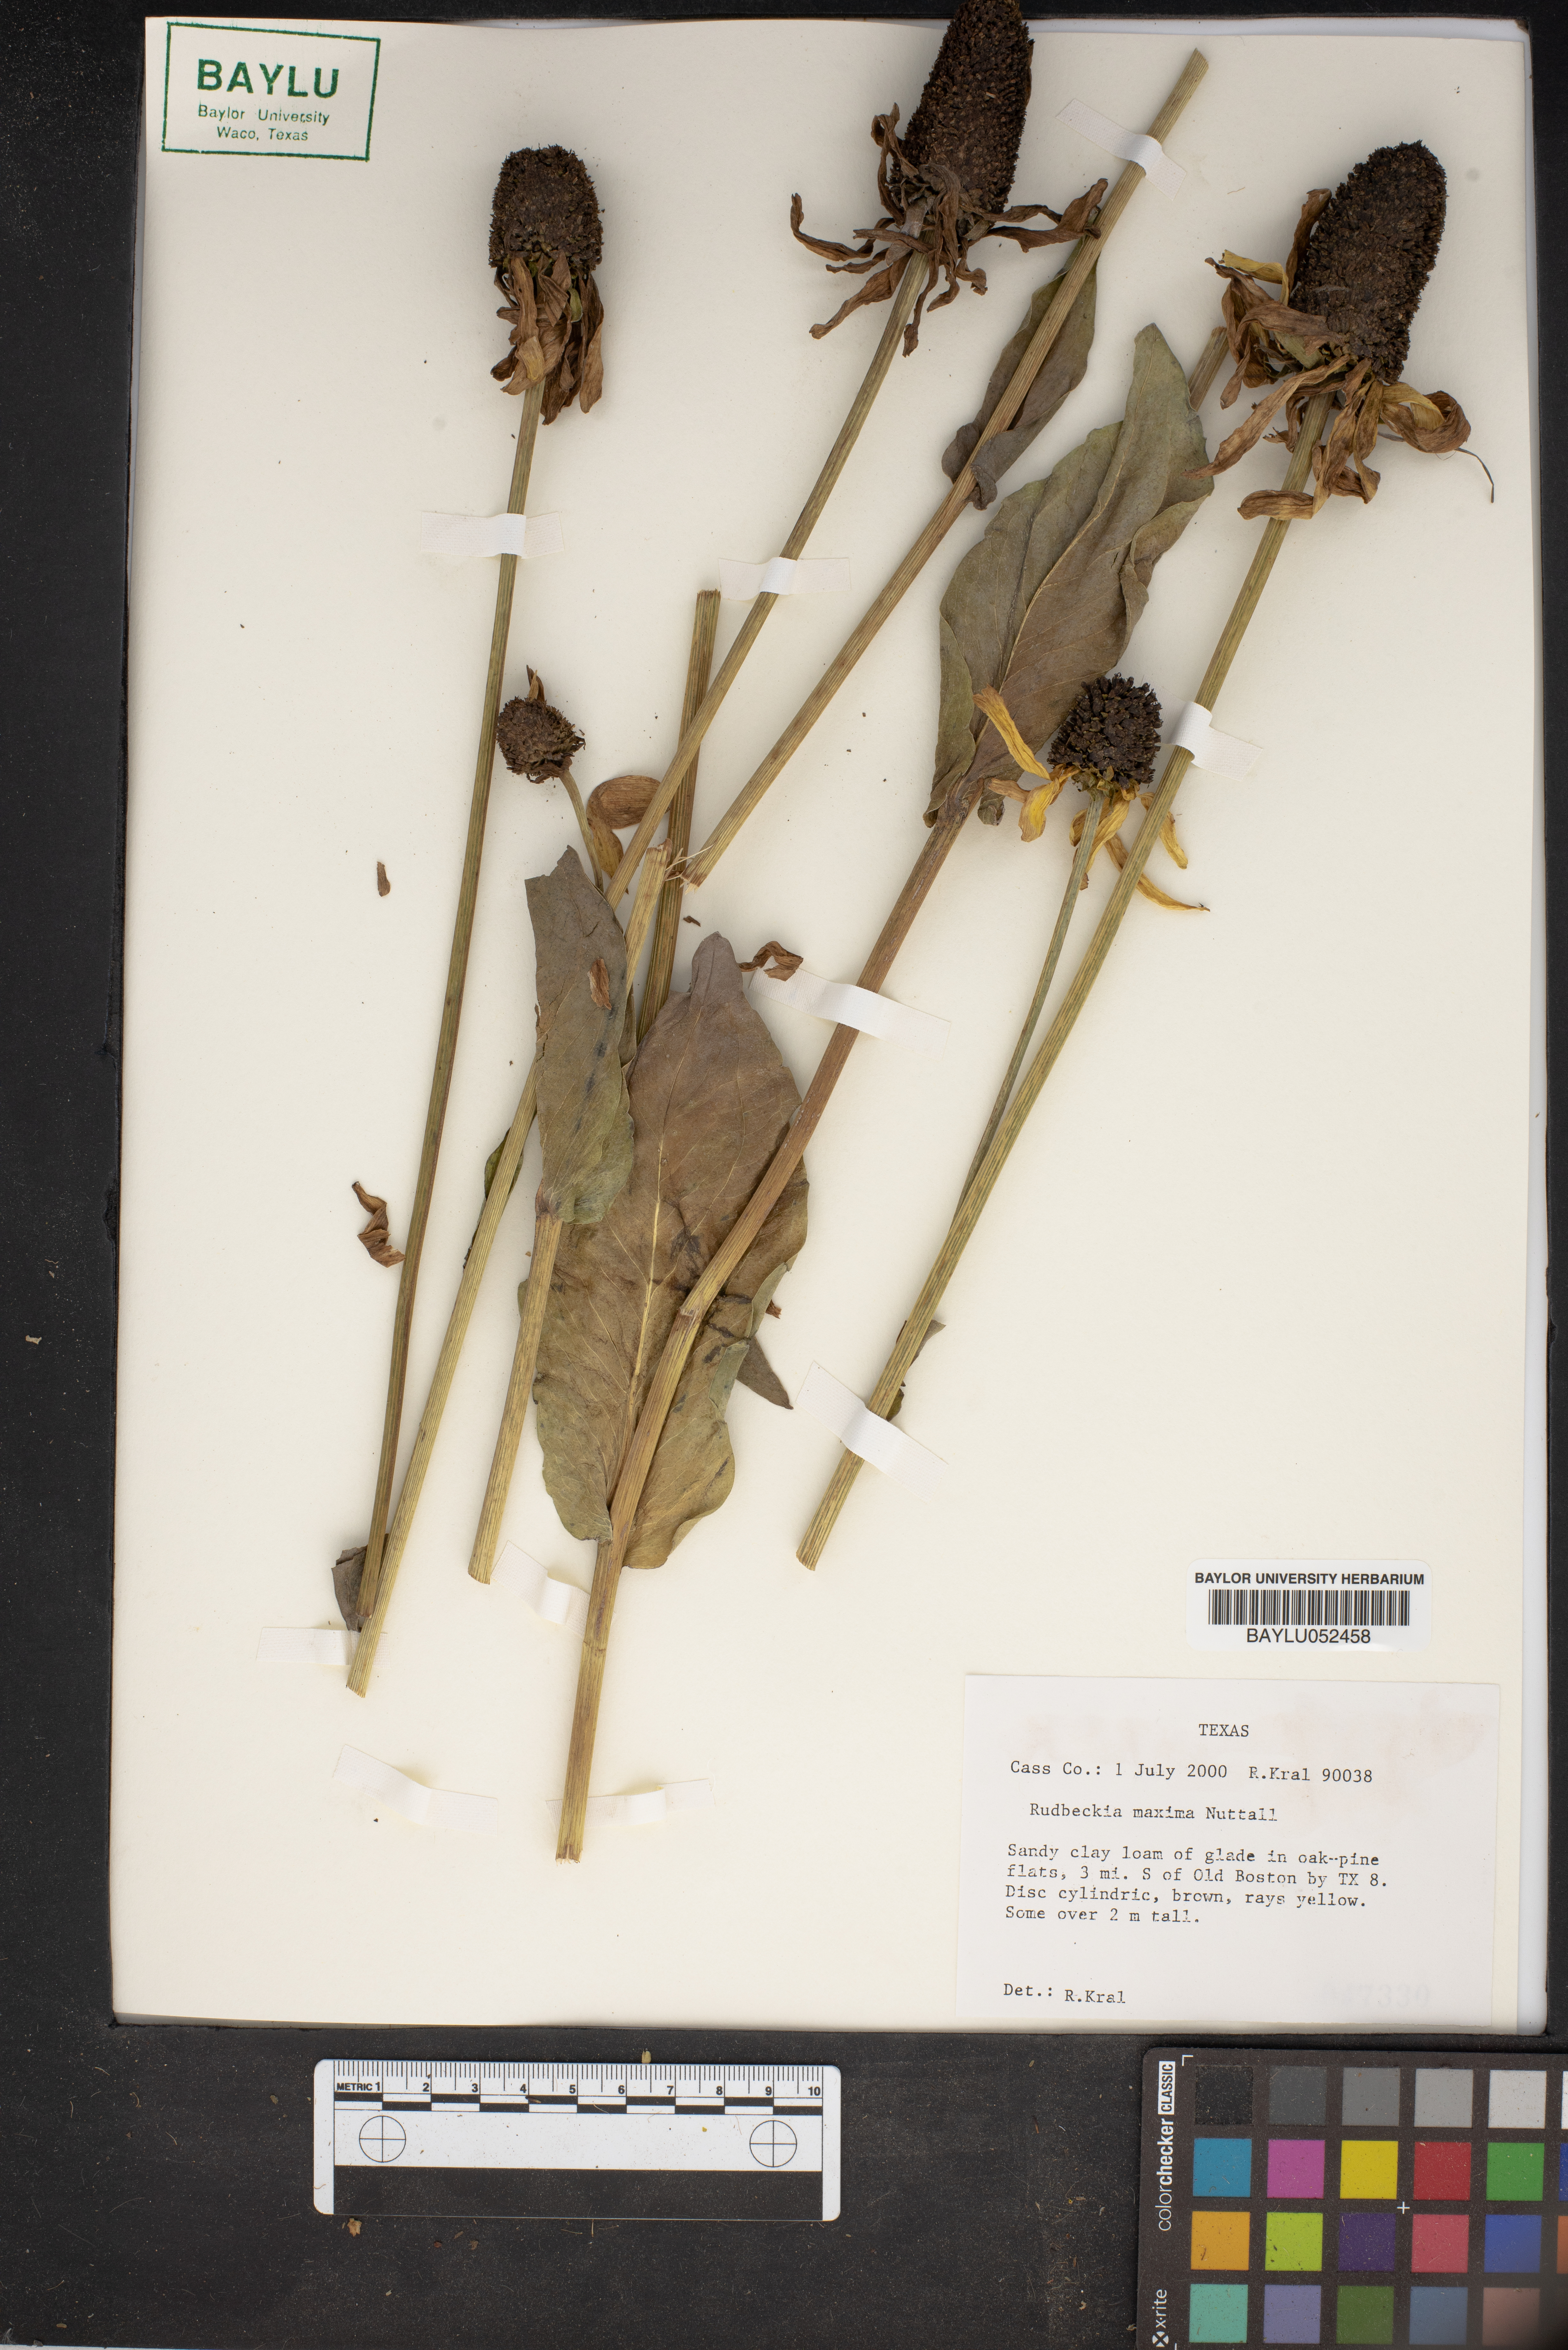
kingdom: Plantae
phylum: Tracheophyta
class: Magnoliopsida
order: Asterales
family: Asteraceae
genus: Rudbeckia
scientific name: Rudbeckia maxima
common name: Cabbage coneflower
